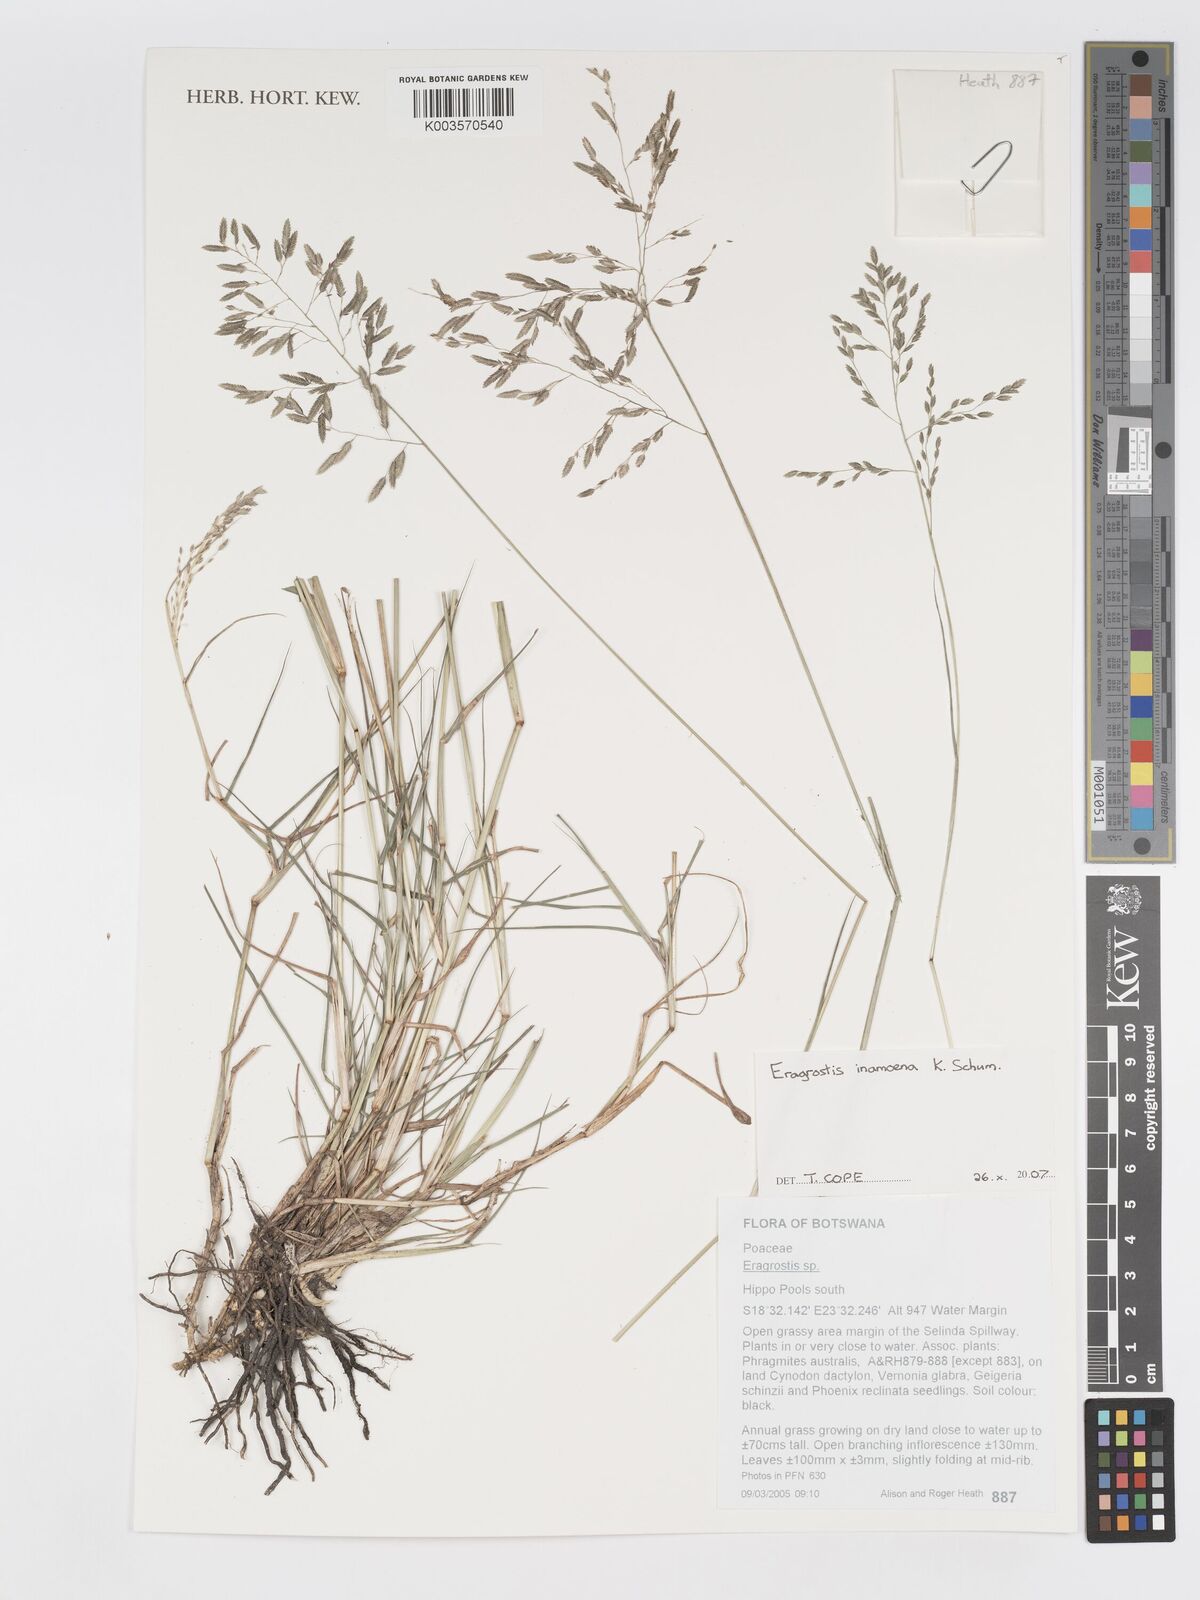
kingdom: Plantae
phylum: Tracheophyta
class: Liliopsida
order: Poales
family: Poaceae
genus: Eragrostis
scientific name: Eragrostis inamoena
